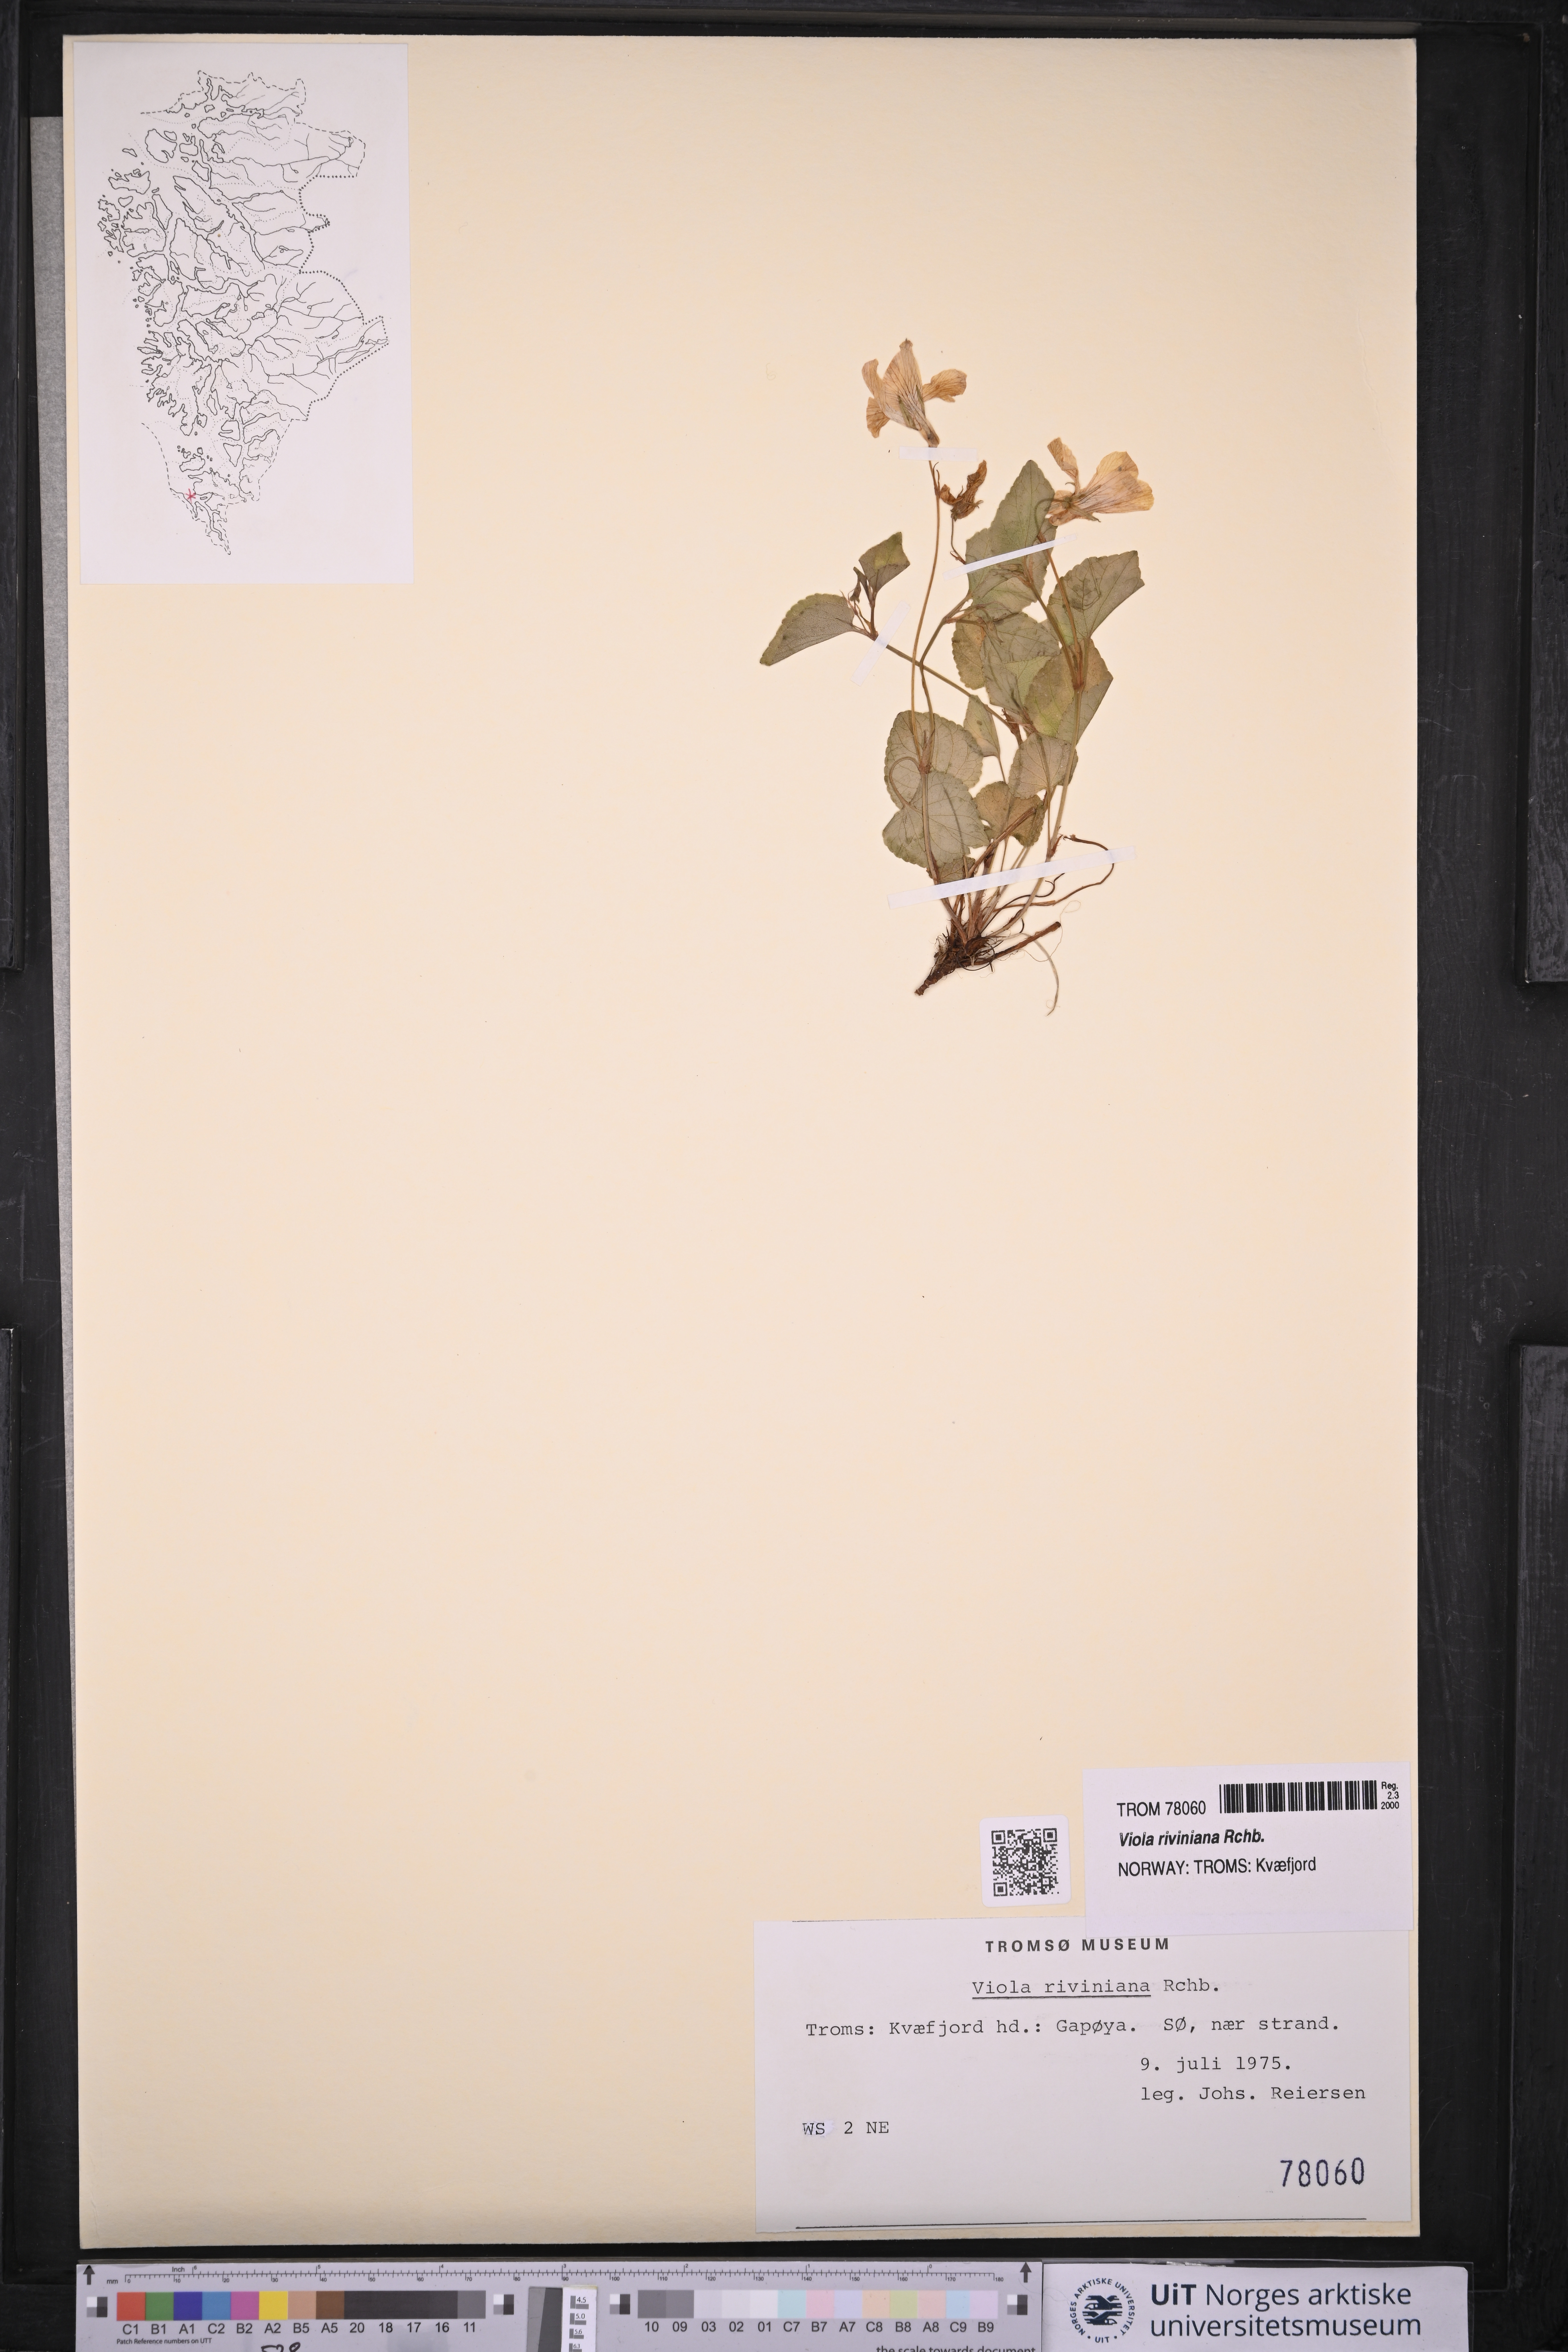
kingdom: Plantae
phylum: Tracheophyta
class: Magnoliopsida
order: Malpighiales
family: Violaceae
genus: Viola
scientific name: Viola riviniana
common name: Common dog-violet
